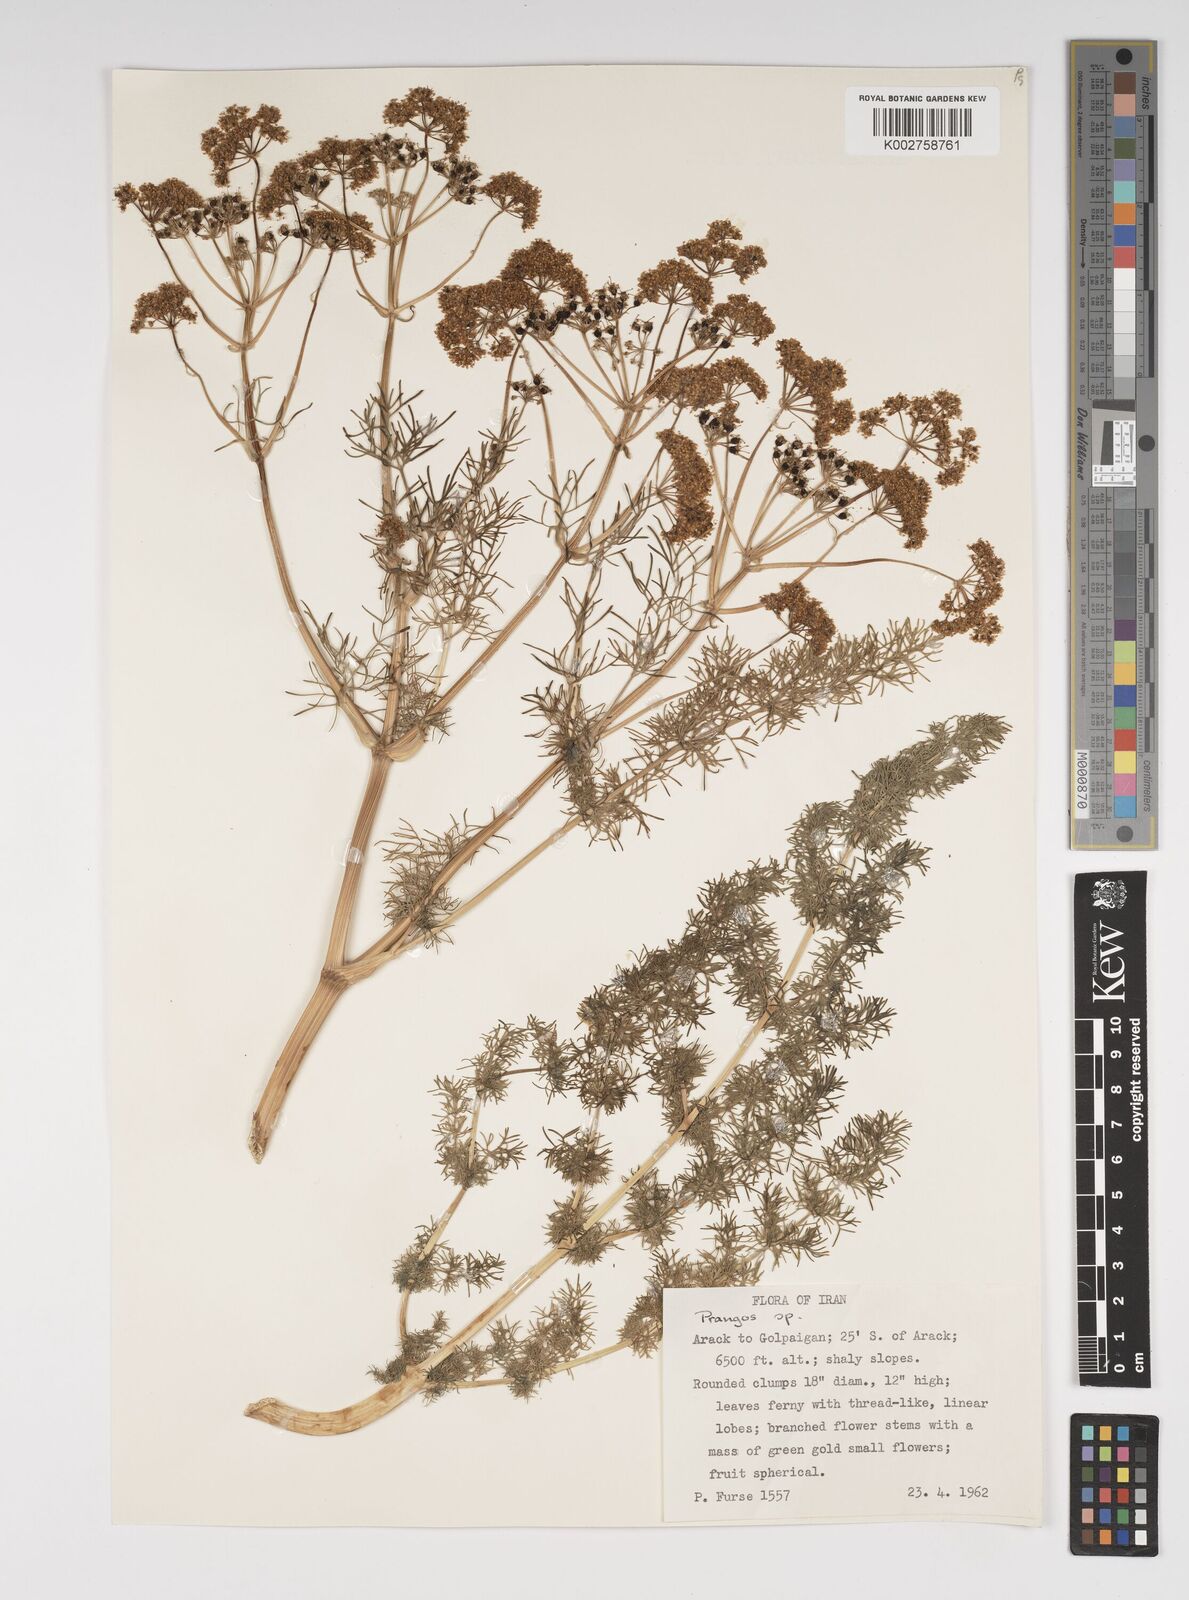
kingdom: Plantae
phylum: Tracheophyta
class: Magnoliopsida
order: Apiales
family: Apiaceae
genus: Cachrys
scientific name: Cachrys
